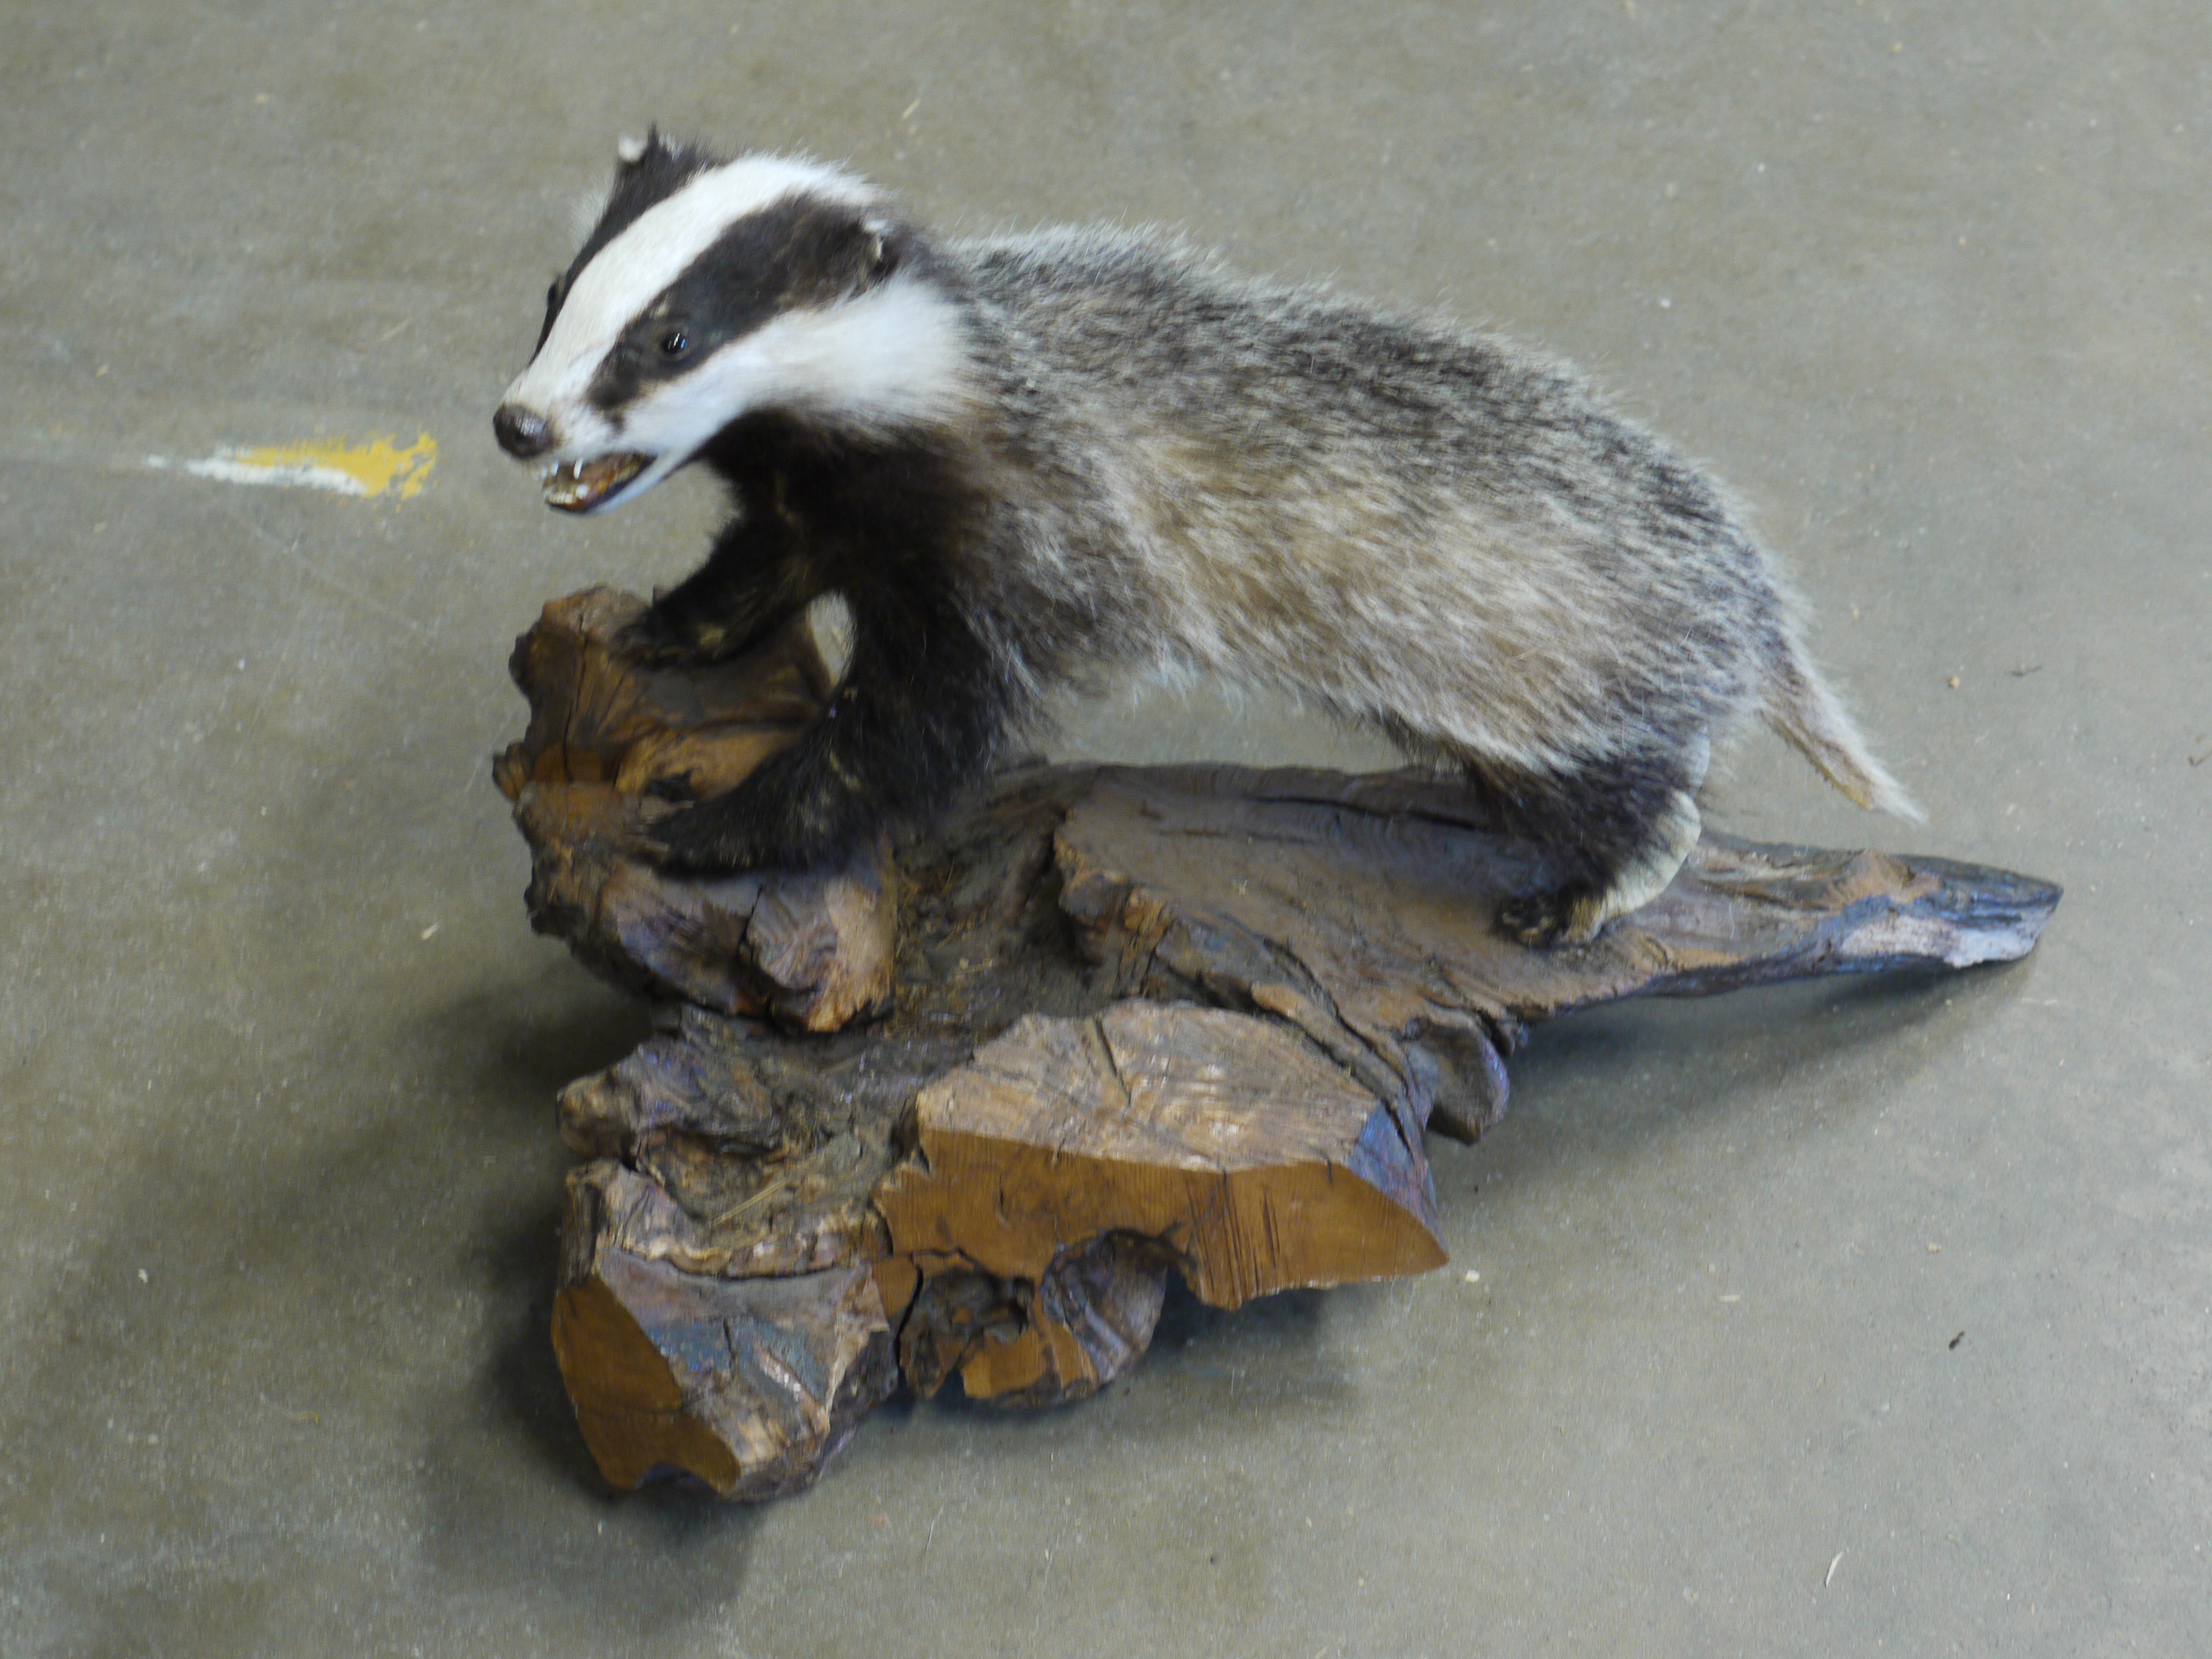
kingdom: Animalia
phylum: Chordata
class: Mammalia
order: Carnivora
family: Mustelidae
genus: Meles
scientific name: Meles meles
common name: Eurasian badger
